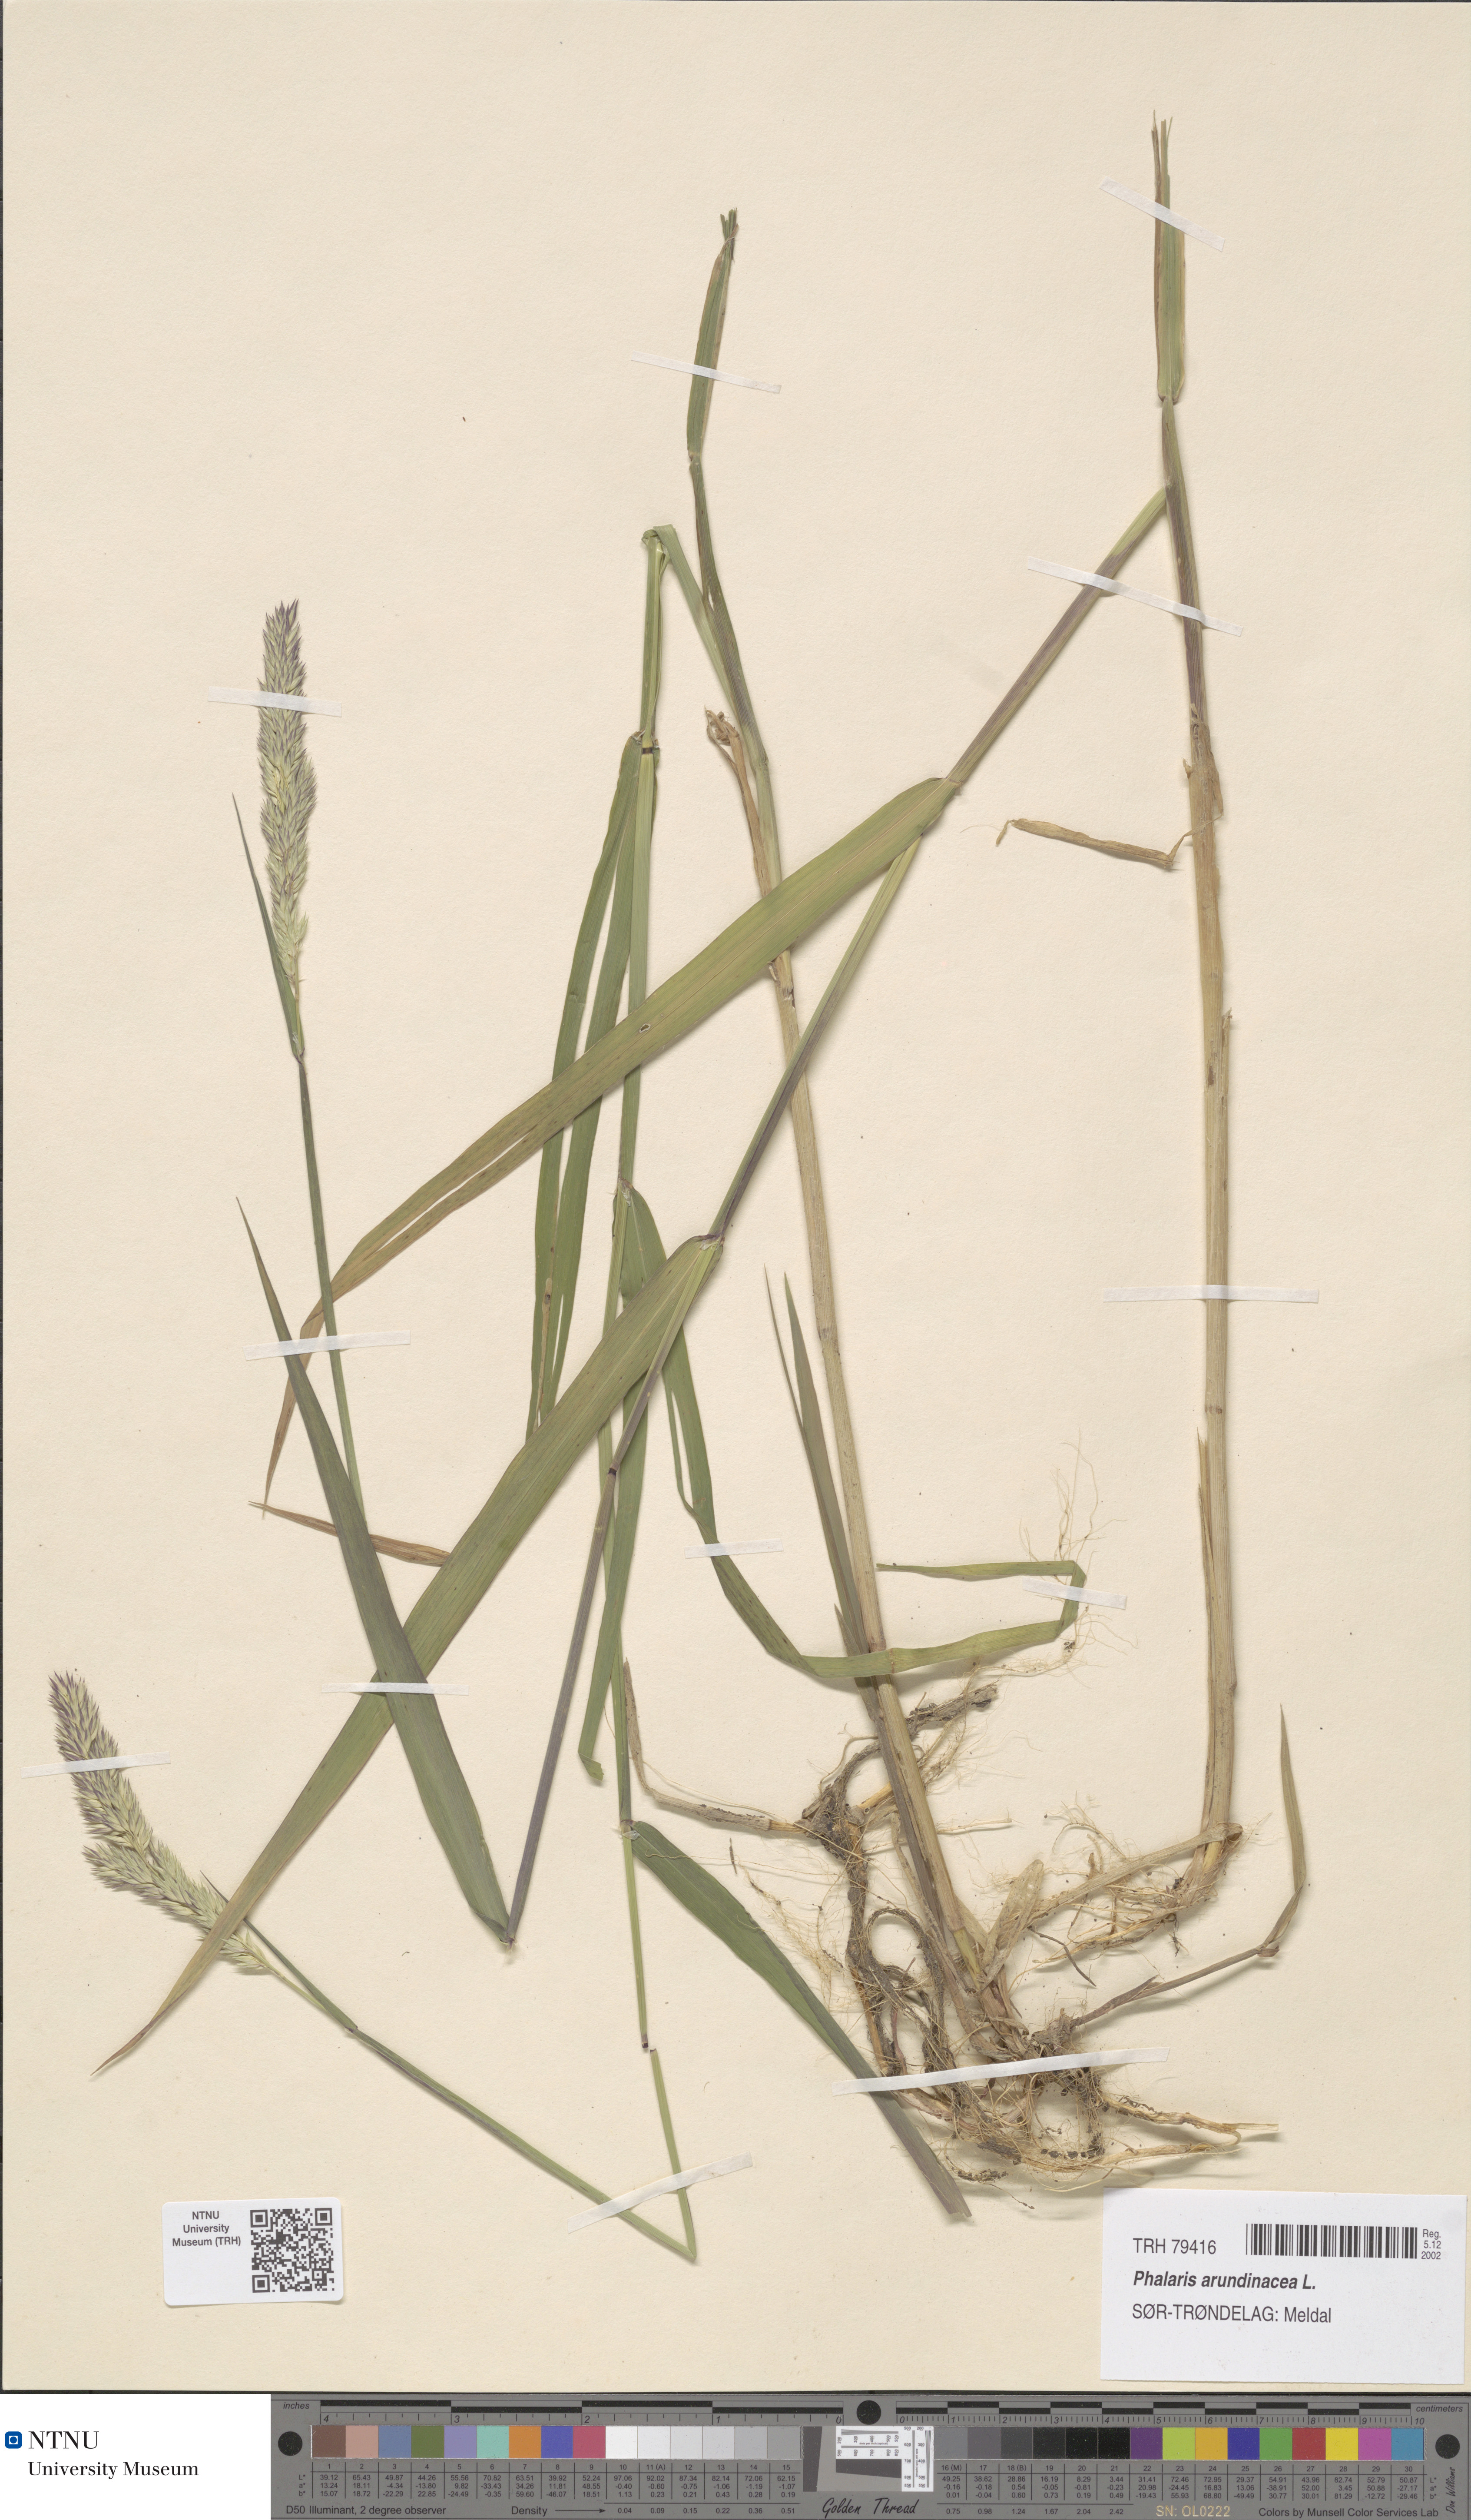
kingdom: Plantae
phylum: Tracheophyta
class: Liliopsida
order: Poales
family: Poaceae
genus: Phalaris
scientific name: Phalaris arundinacea
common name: Reed canary-grass
